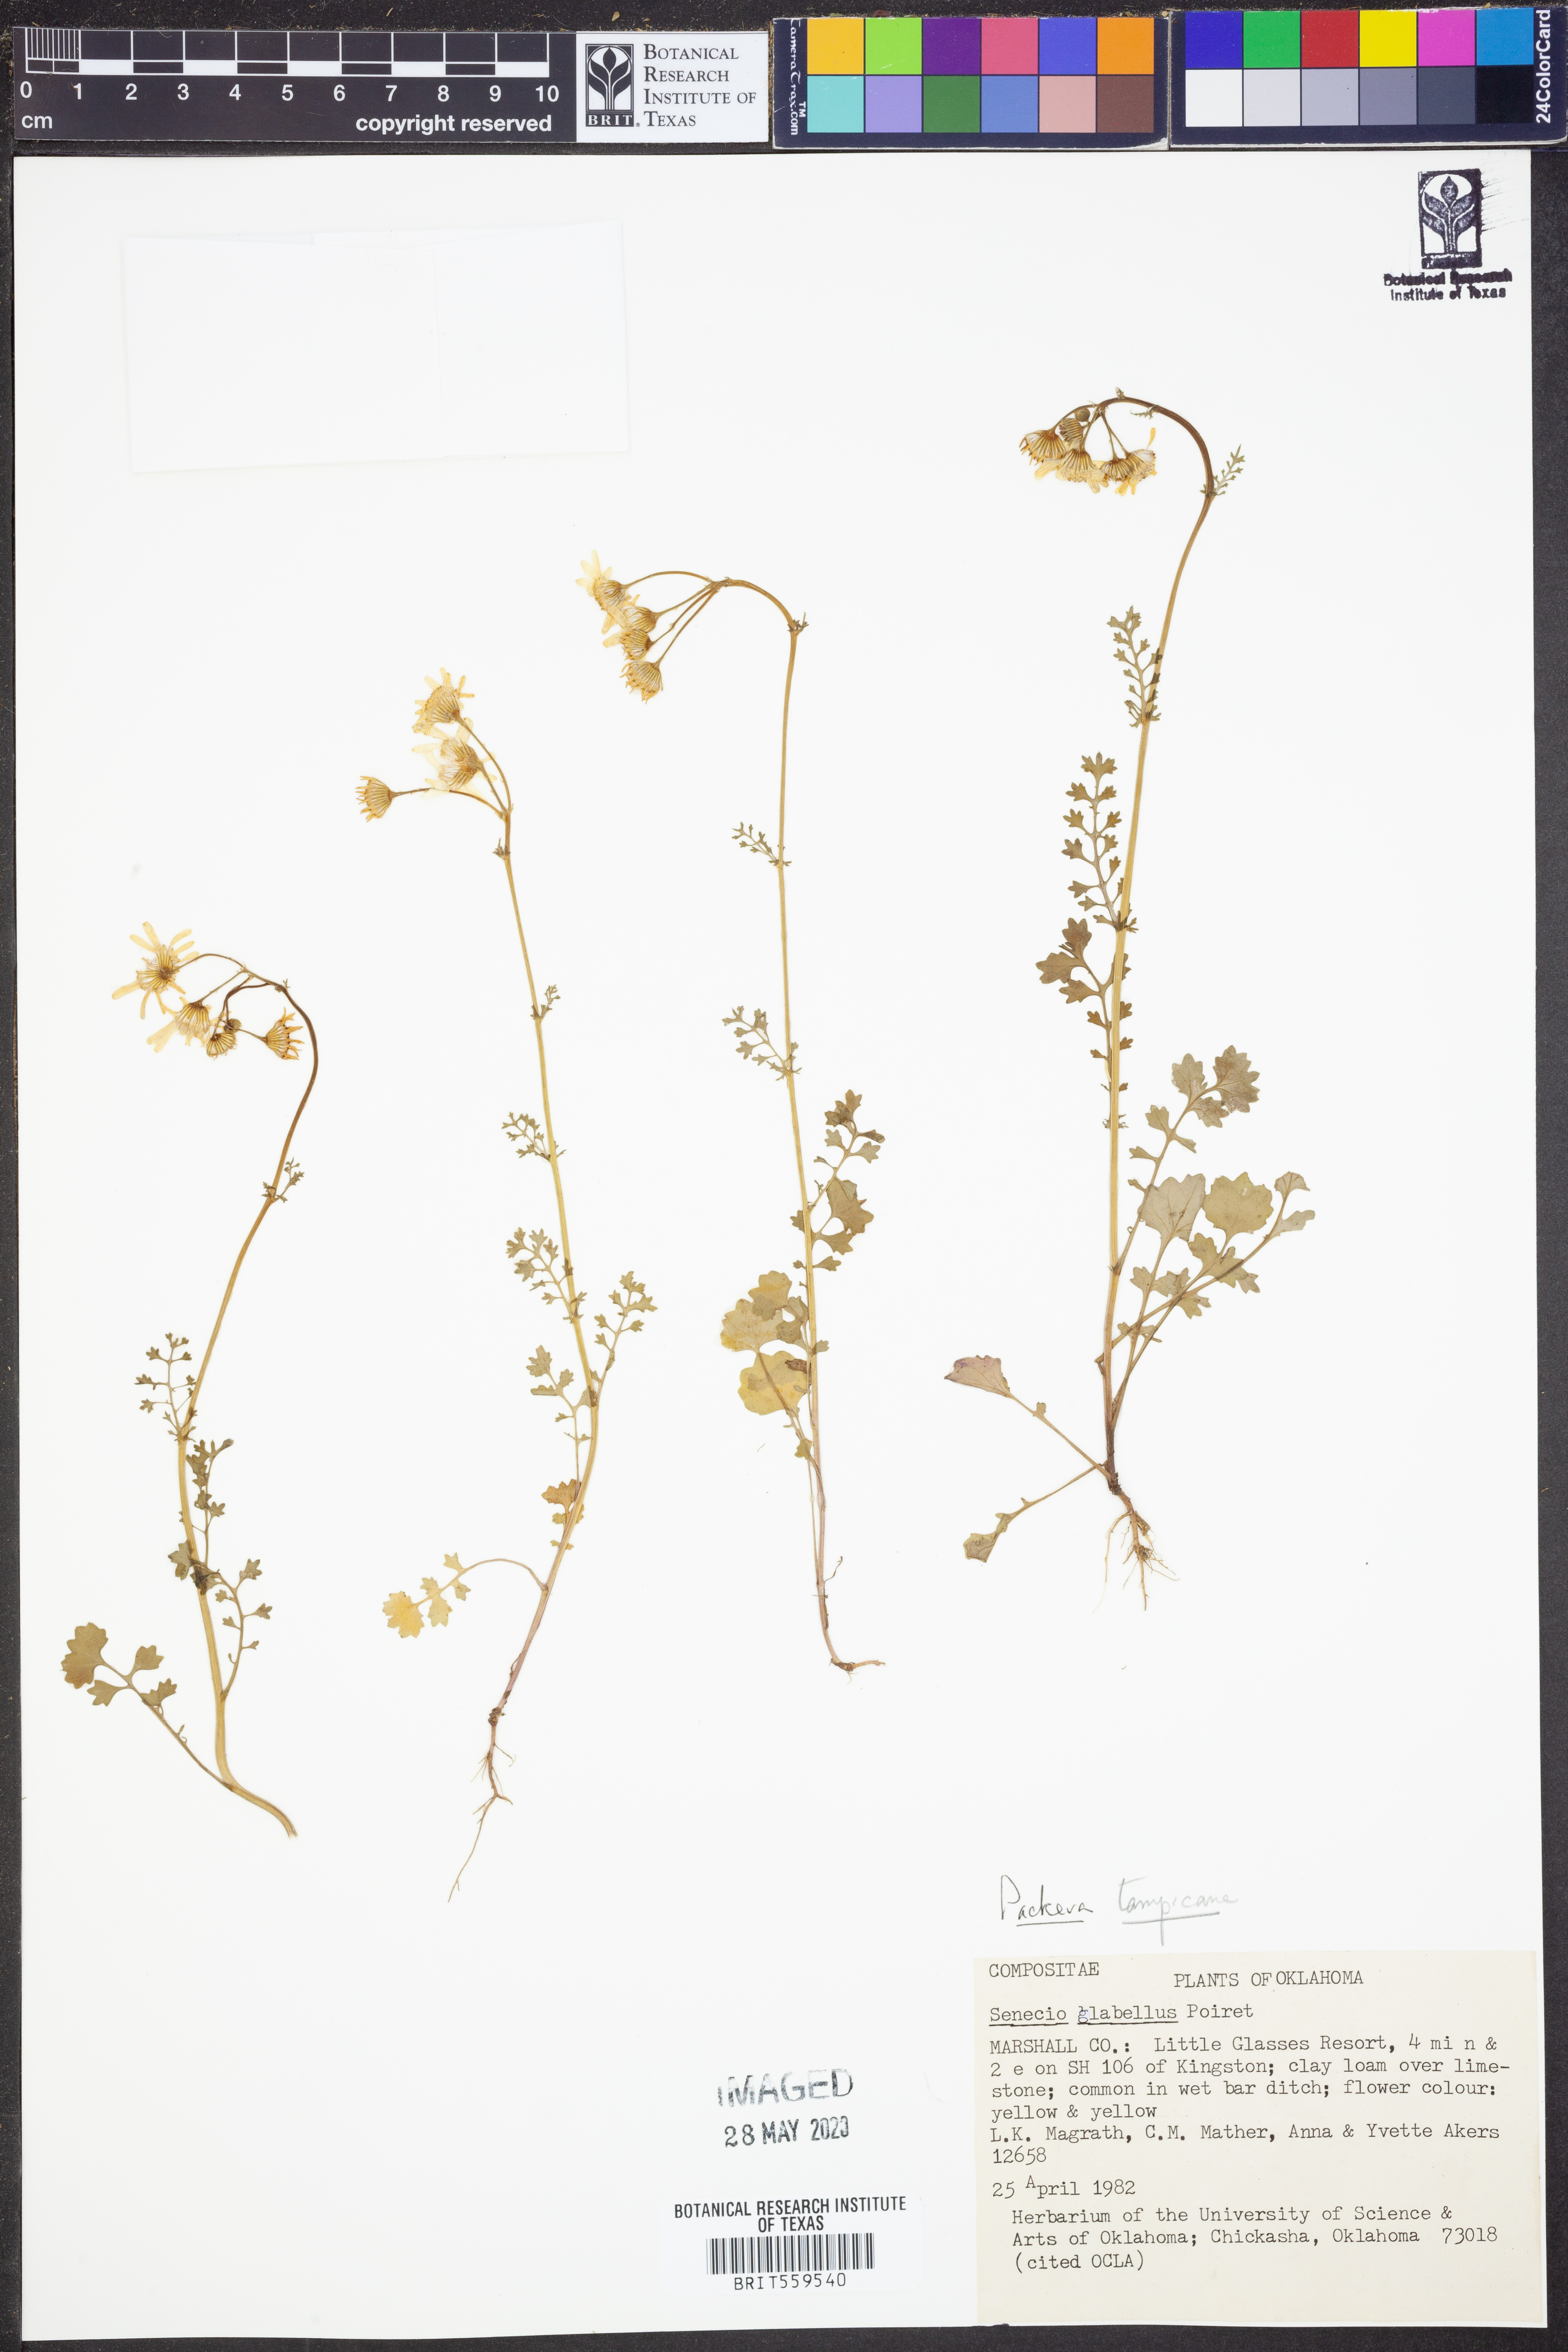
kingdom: Plantae
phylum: Tracheophyta
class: Magnoliopsida
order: Asterales
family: Asteraceae
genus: Packera
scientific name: Packera tampicana
